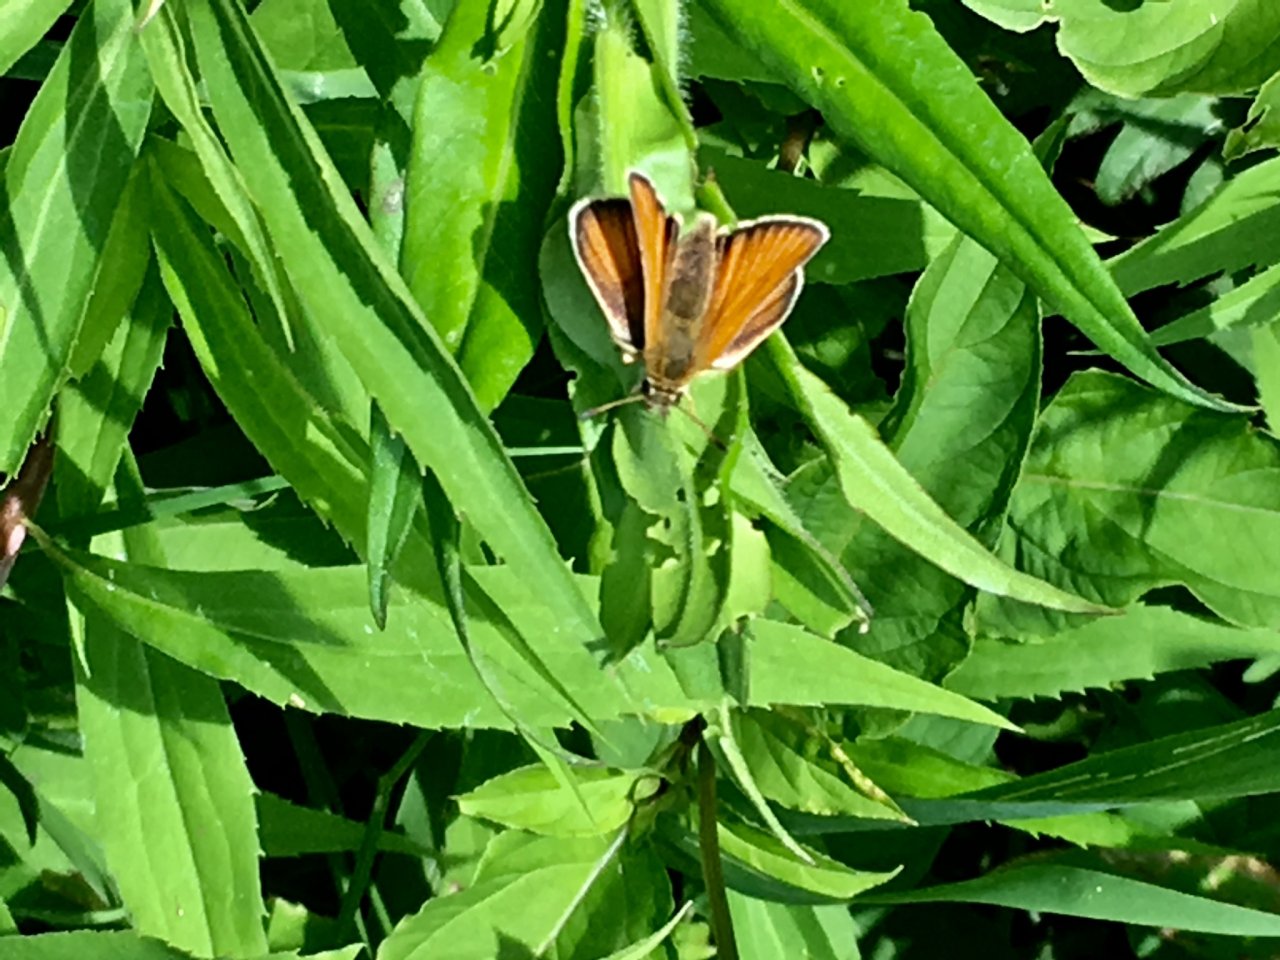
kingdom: Animalia
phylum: Arthropoda
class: Insecta
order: Lepidoptera
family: Hesperiidae
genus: Thymelicus
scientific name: Thymelicus lineola
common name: European Skipper
